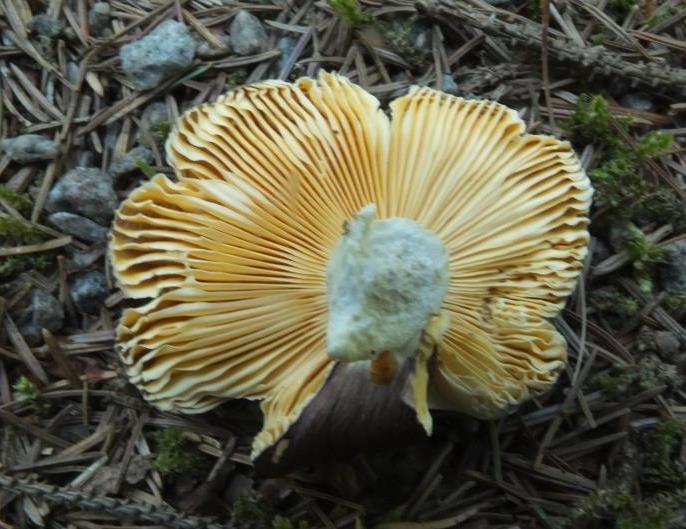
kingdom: Fungi
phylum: Basidiomycota
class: Agaricomycetes
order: Russulales
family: Russulaceae
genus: Russula
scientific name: Russula
